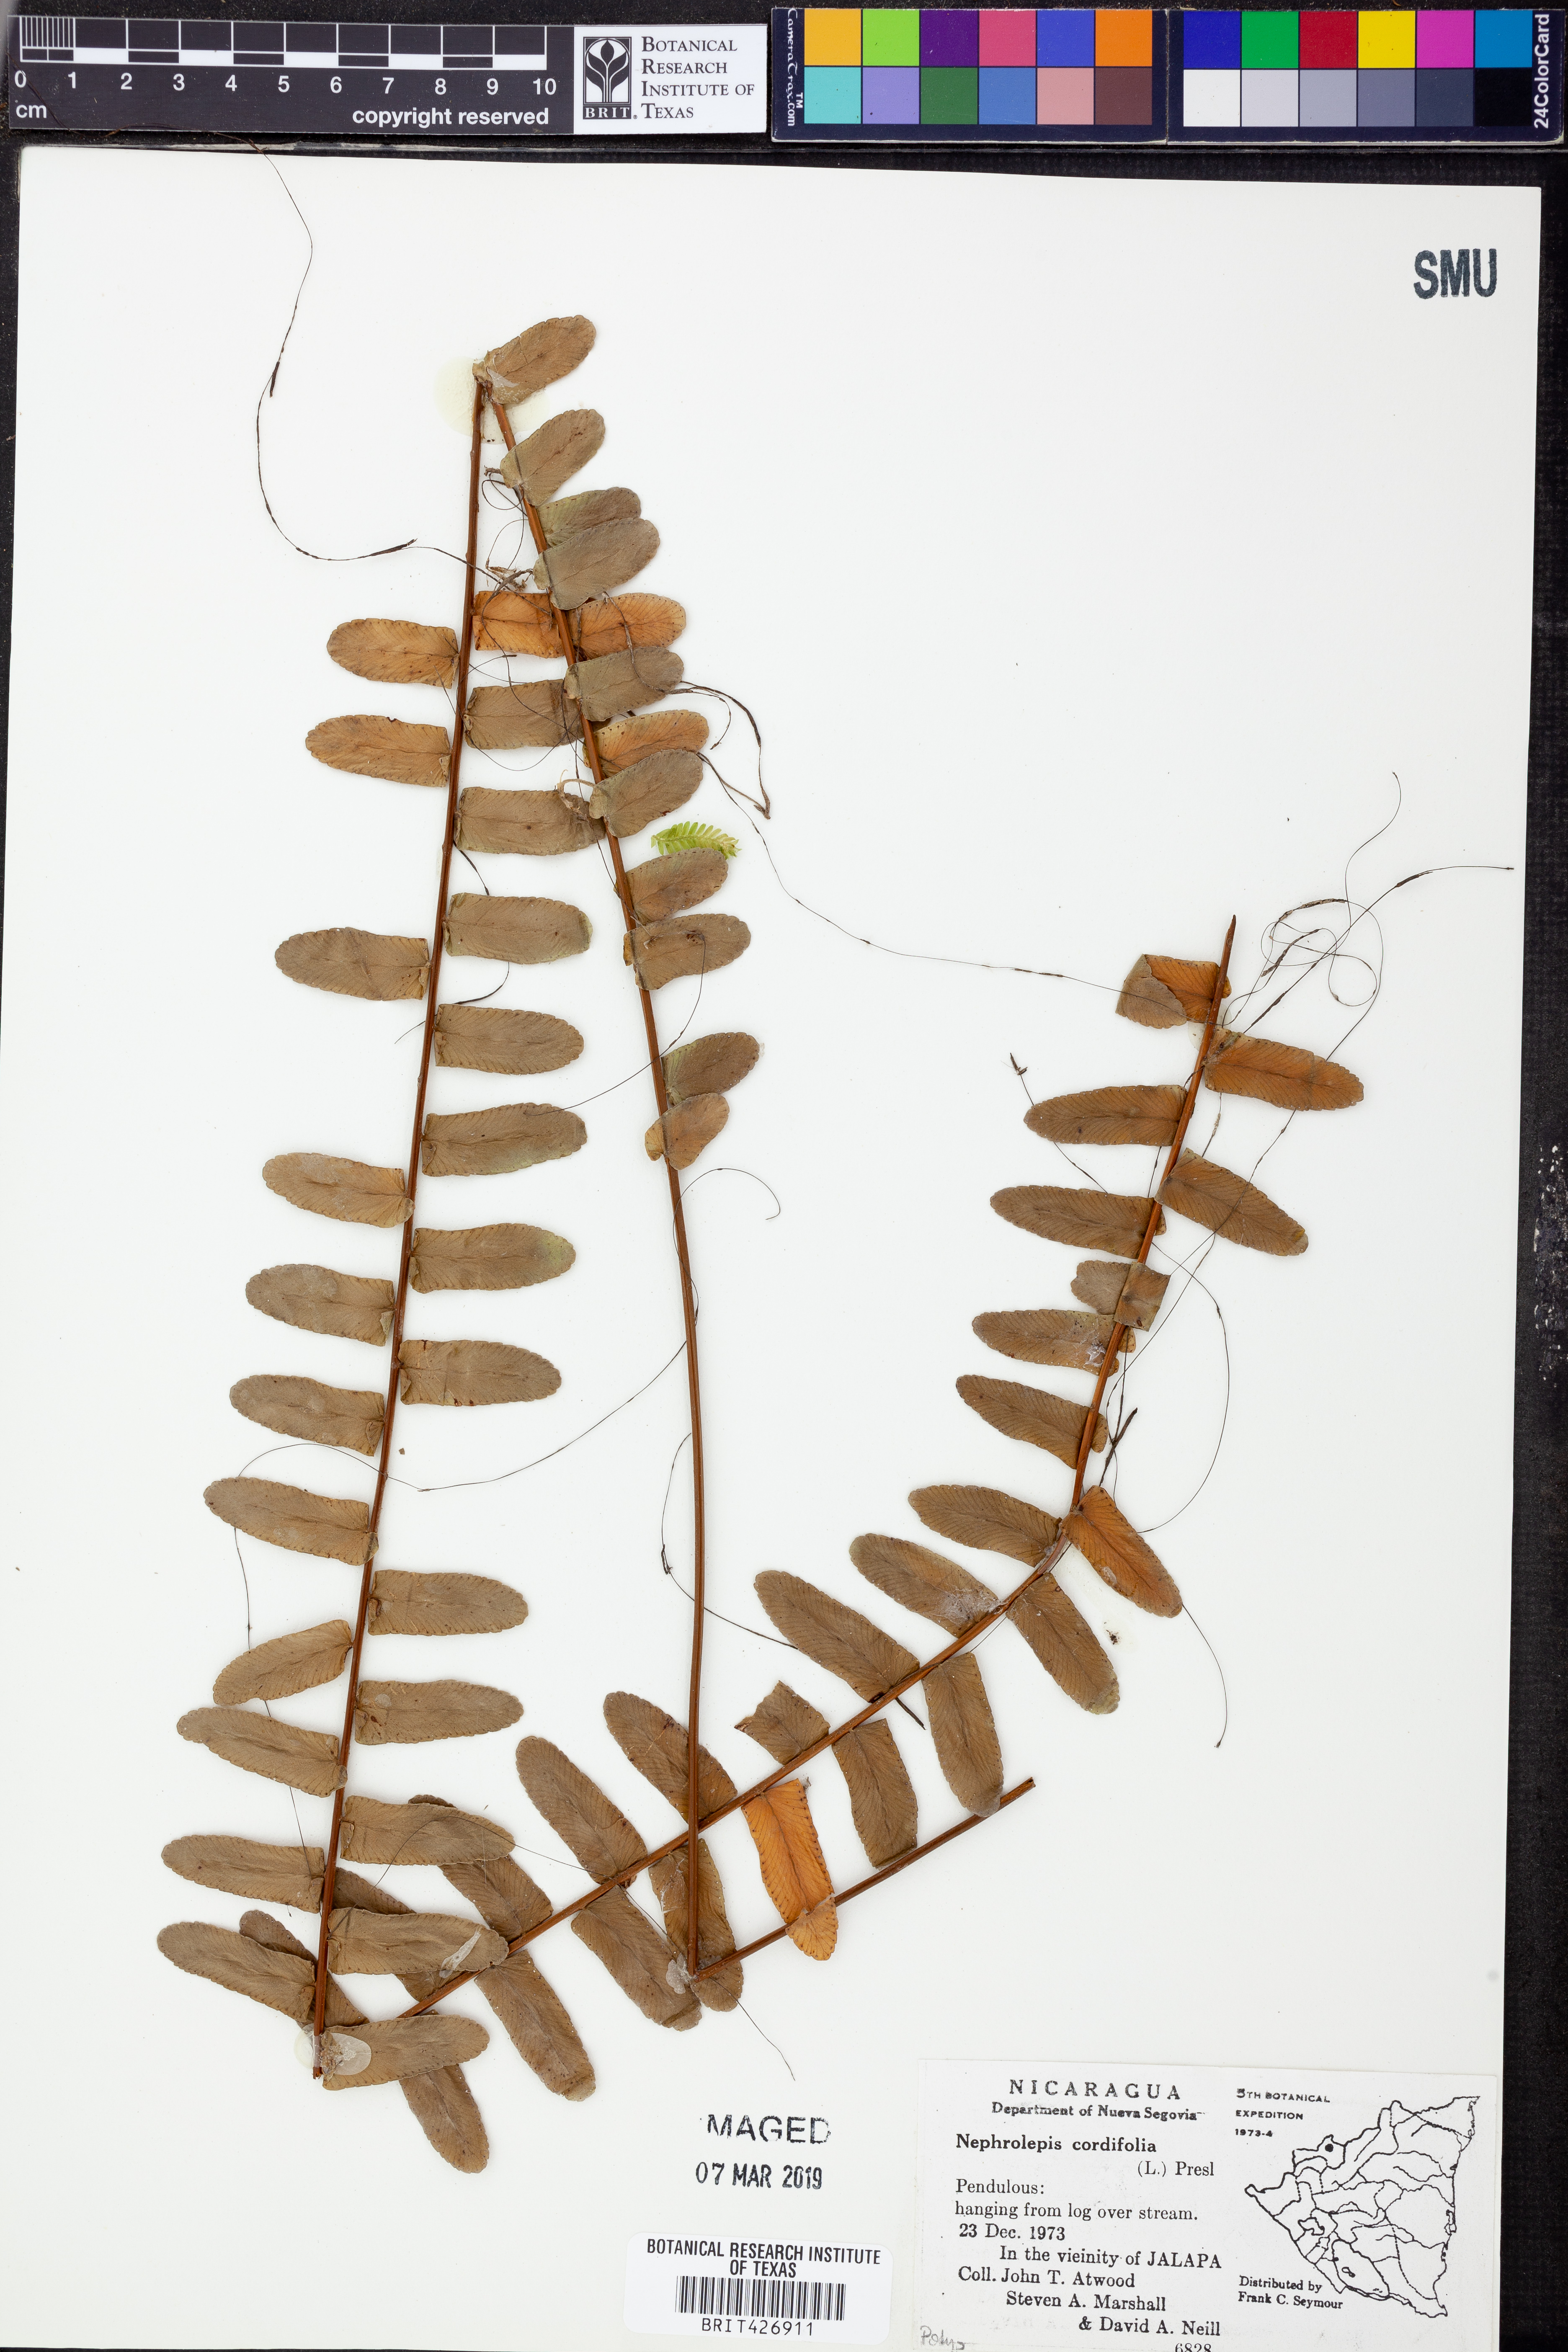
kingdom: Plantae
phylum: Tracheophyta
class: Polypodiopsida
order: Polypodiales
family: Nephrolepidaceae
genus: Nephrolepis
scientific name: Nephrolepis cordifolia
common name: Narrow swordfern
